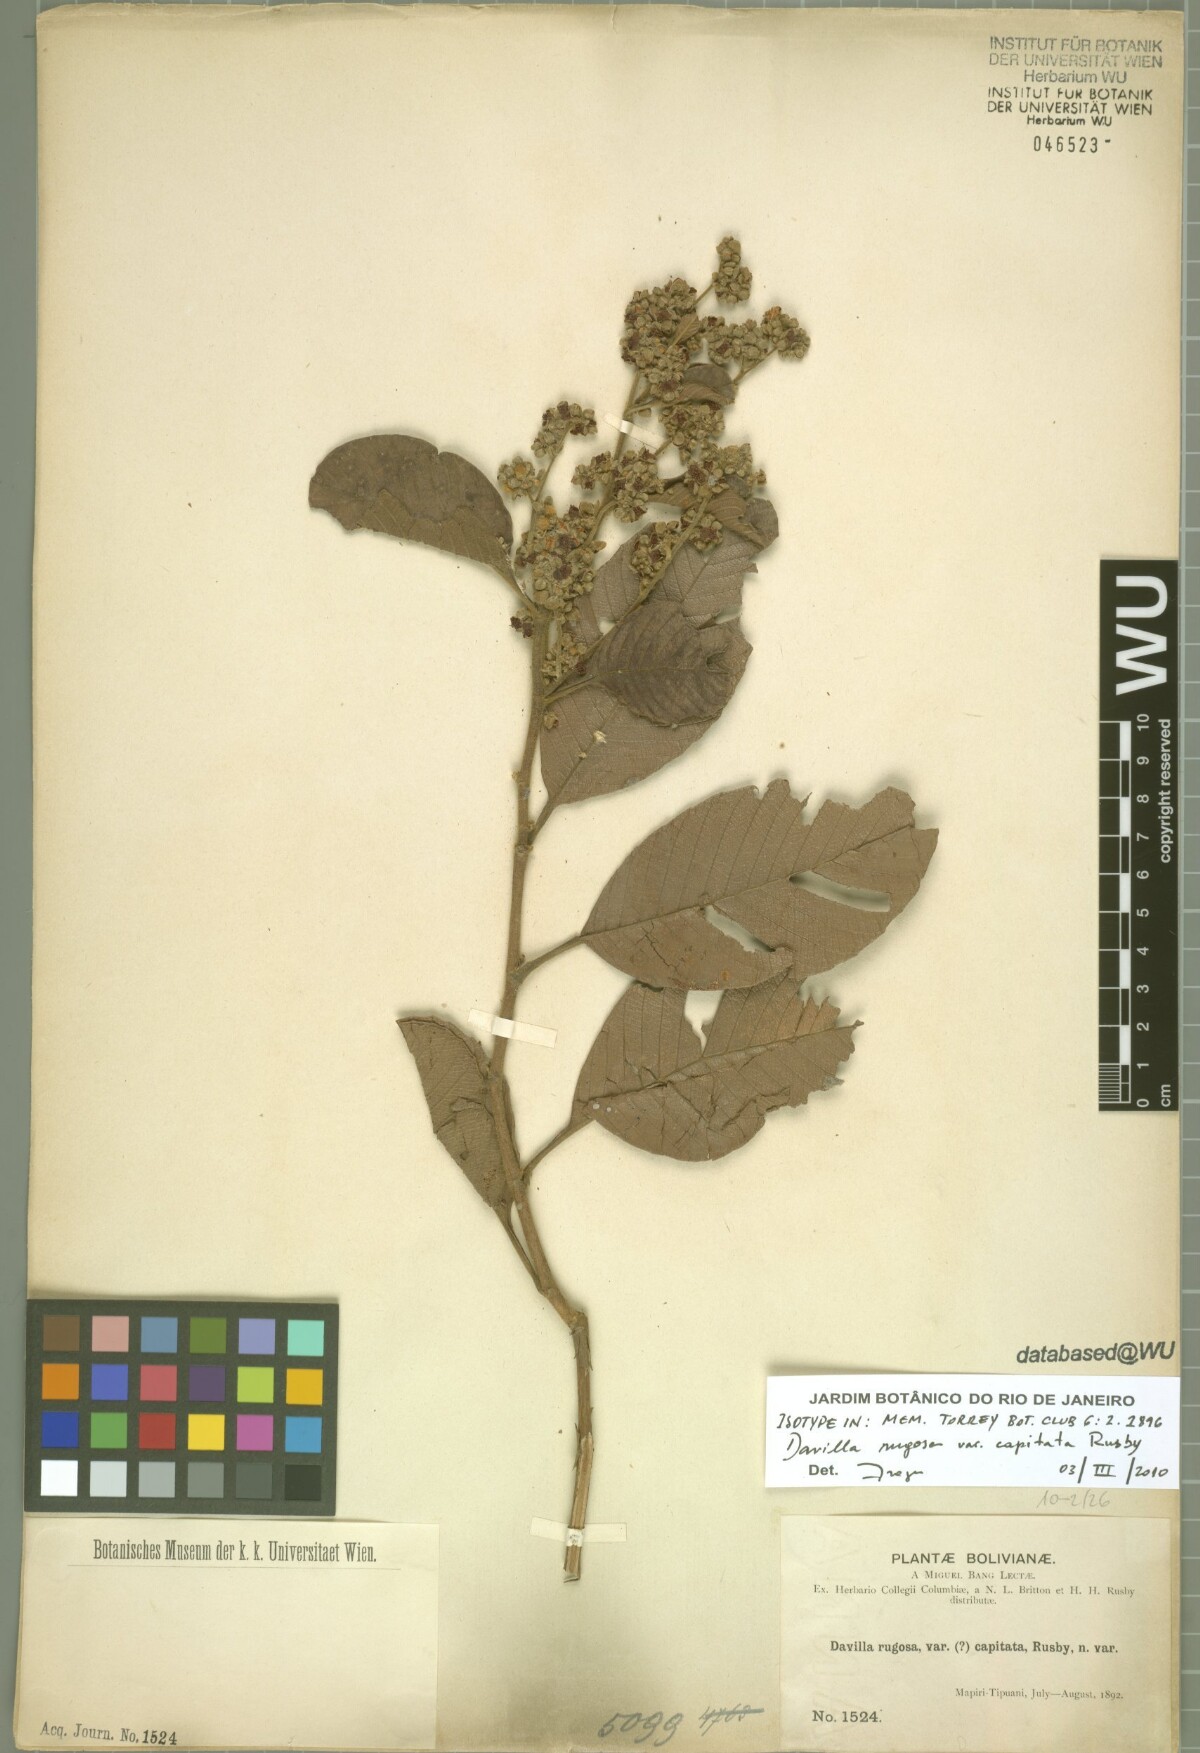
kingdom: Plantae
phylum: Tracheophyta
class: Magnoliopsida
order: Dilleniales
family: Dilleniaceae
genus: Davilla
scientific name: Davilla rugosa
